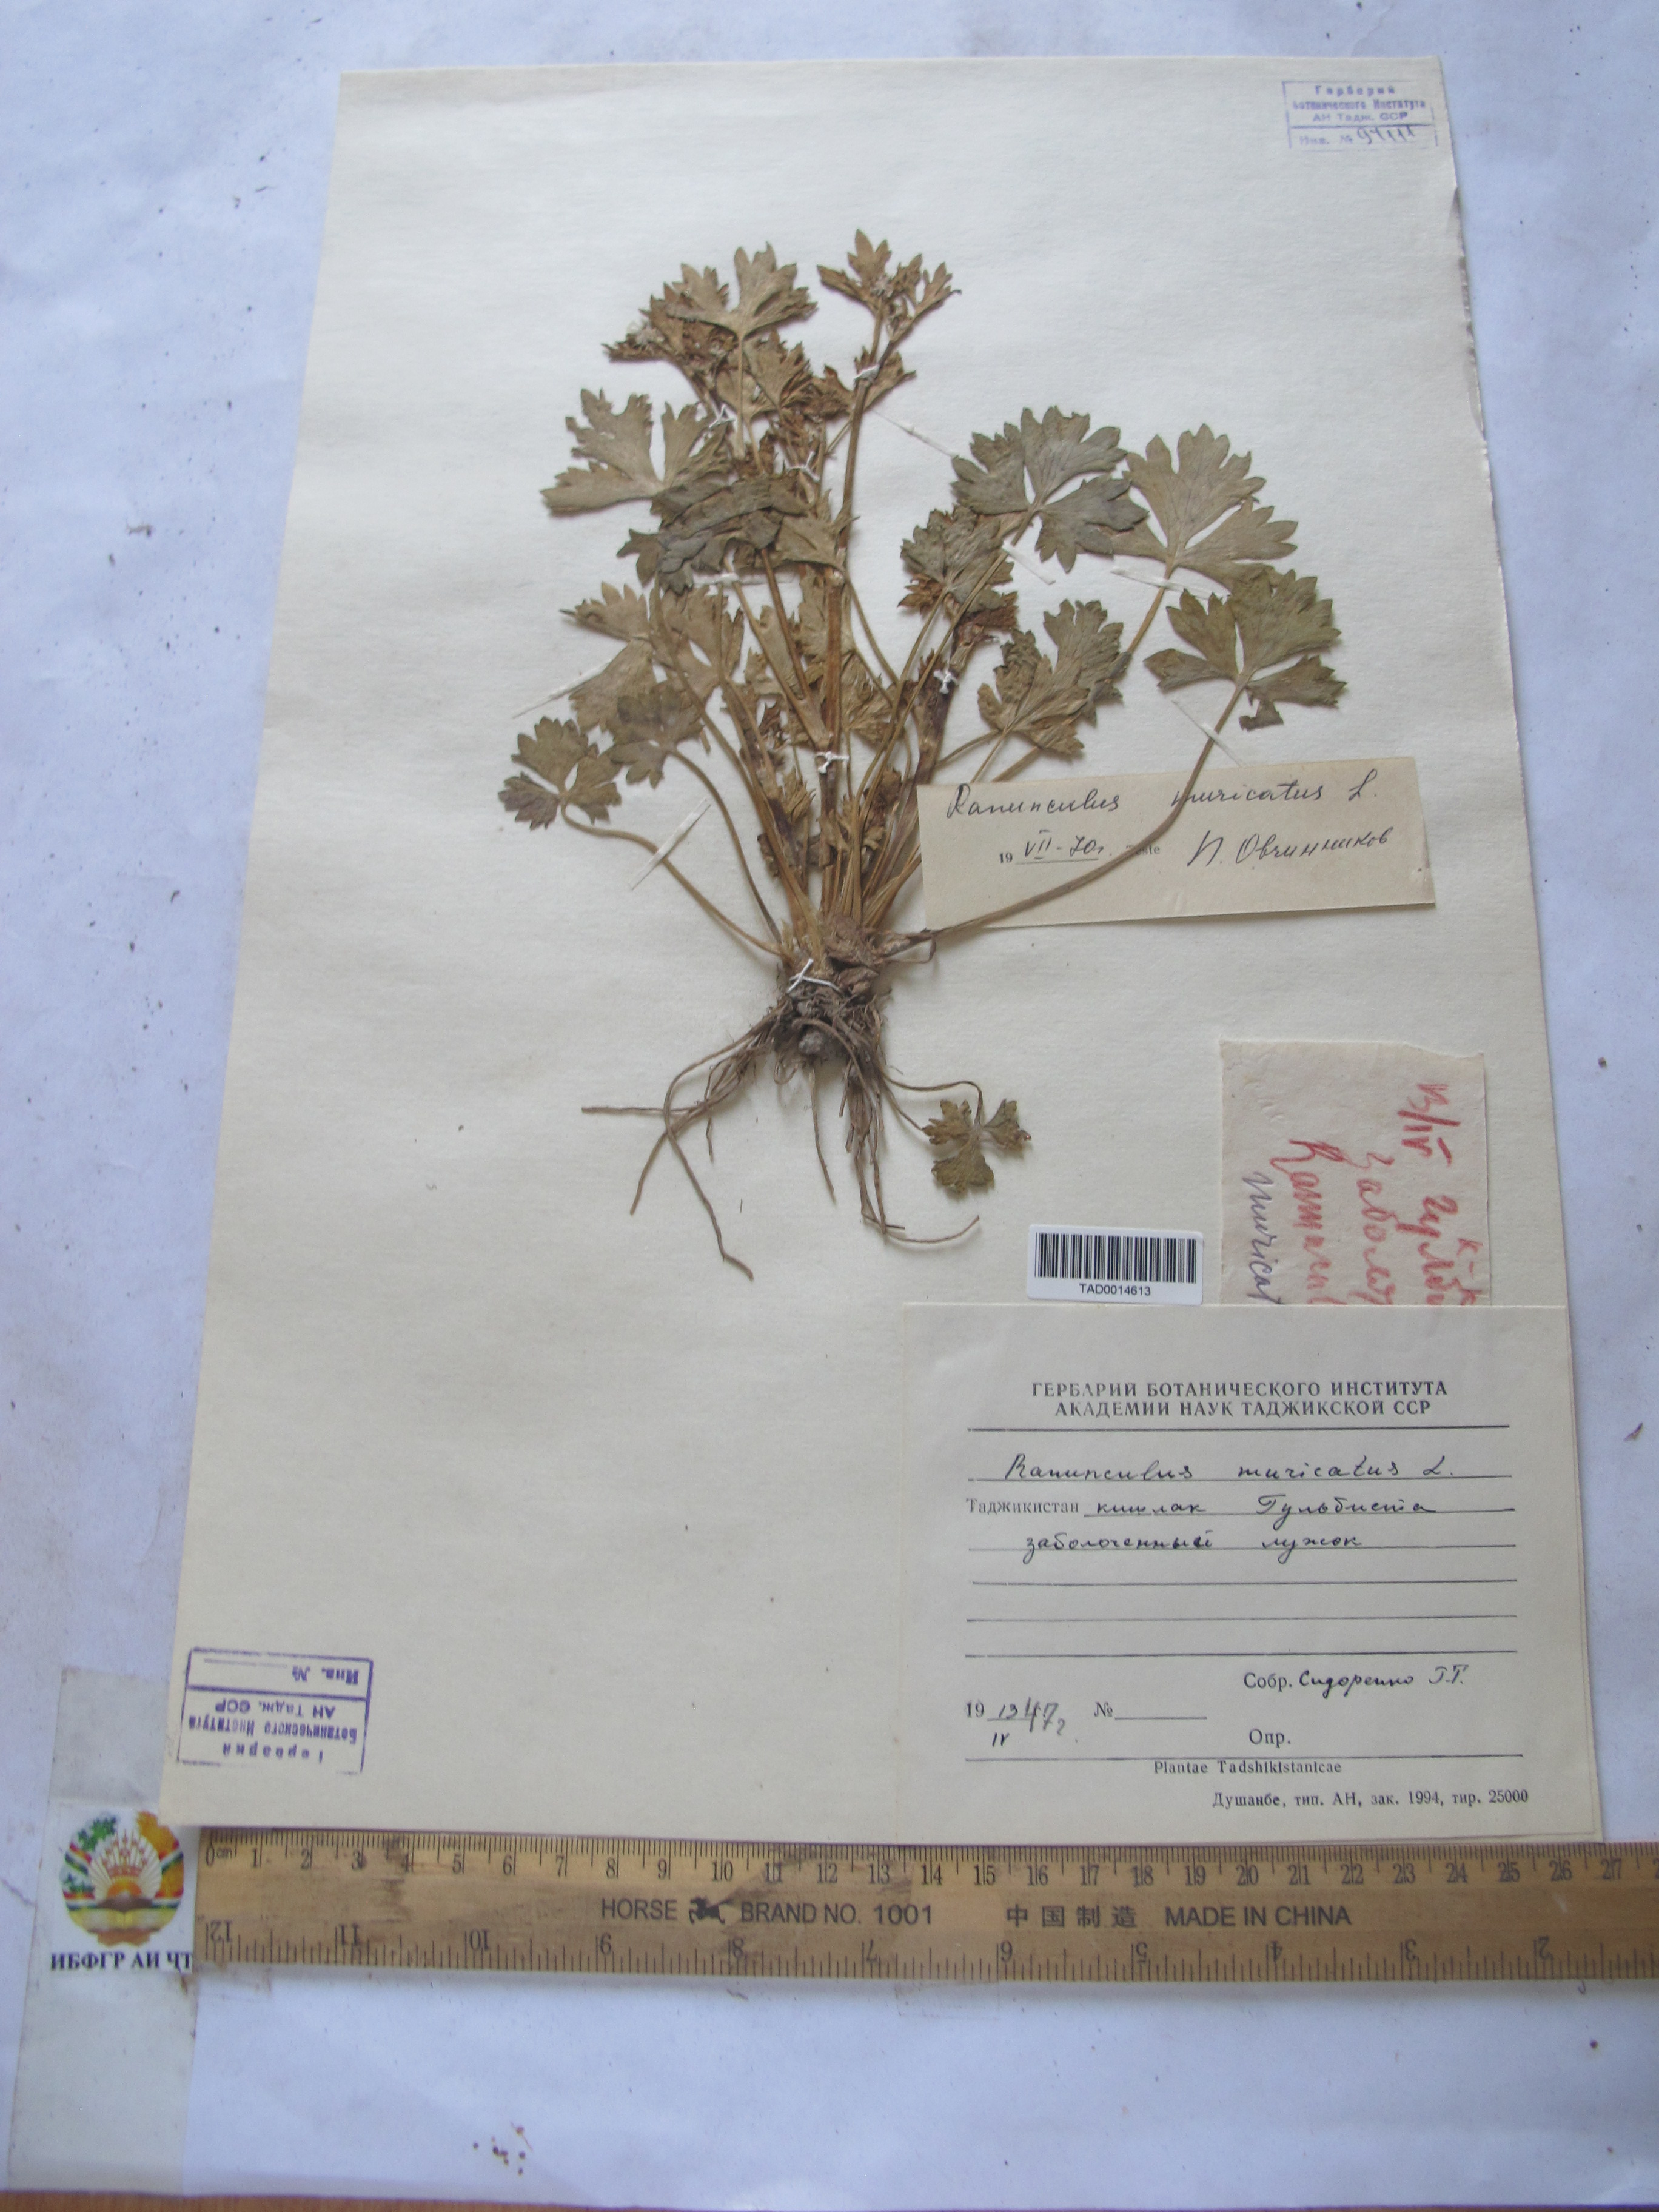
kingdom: Plantae
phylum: Tracheophyta
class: Magnoliopsida
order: Ranunculales
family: Ranunculaceae
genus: Ranunculus
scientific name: Ranunculus muricatus
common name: Rough-fruited buttercup
